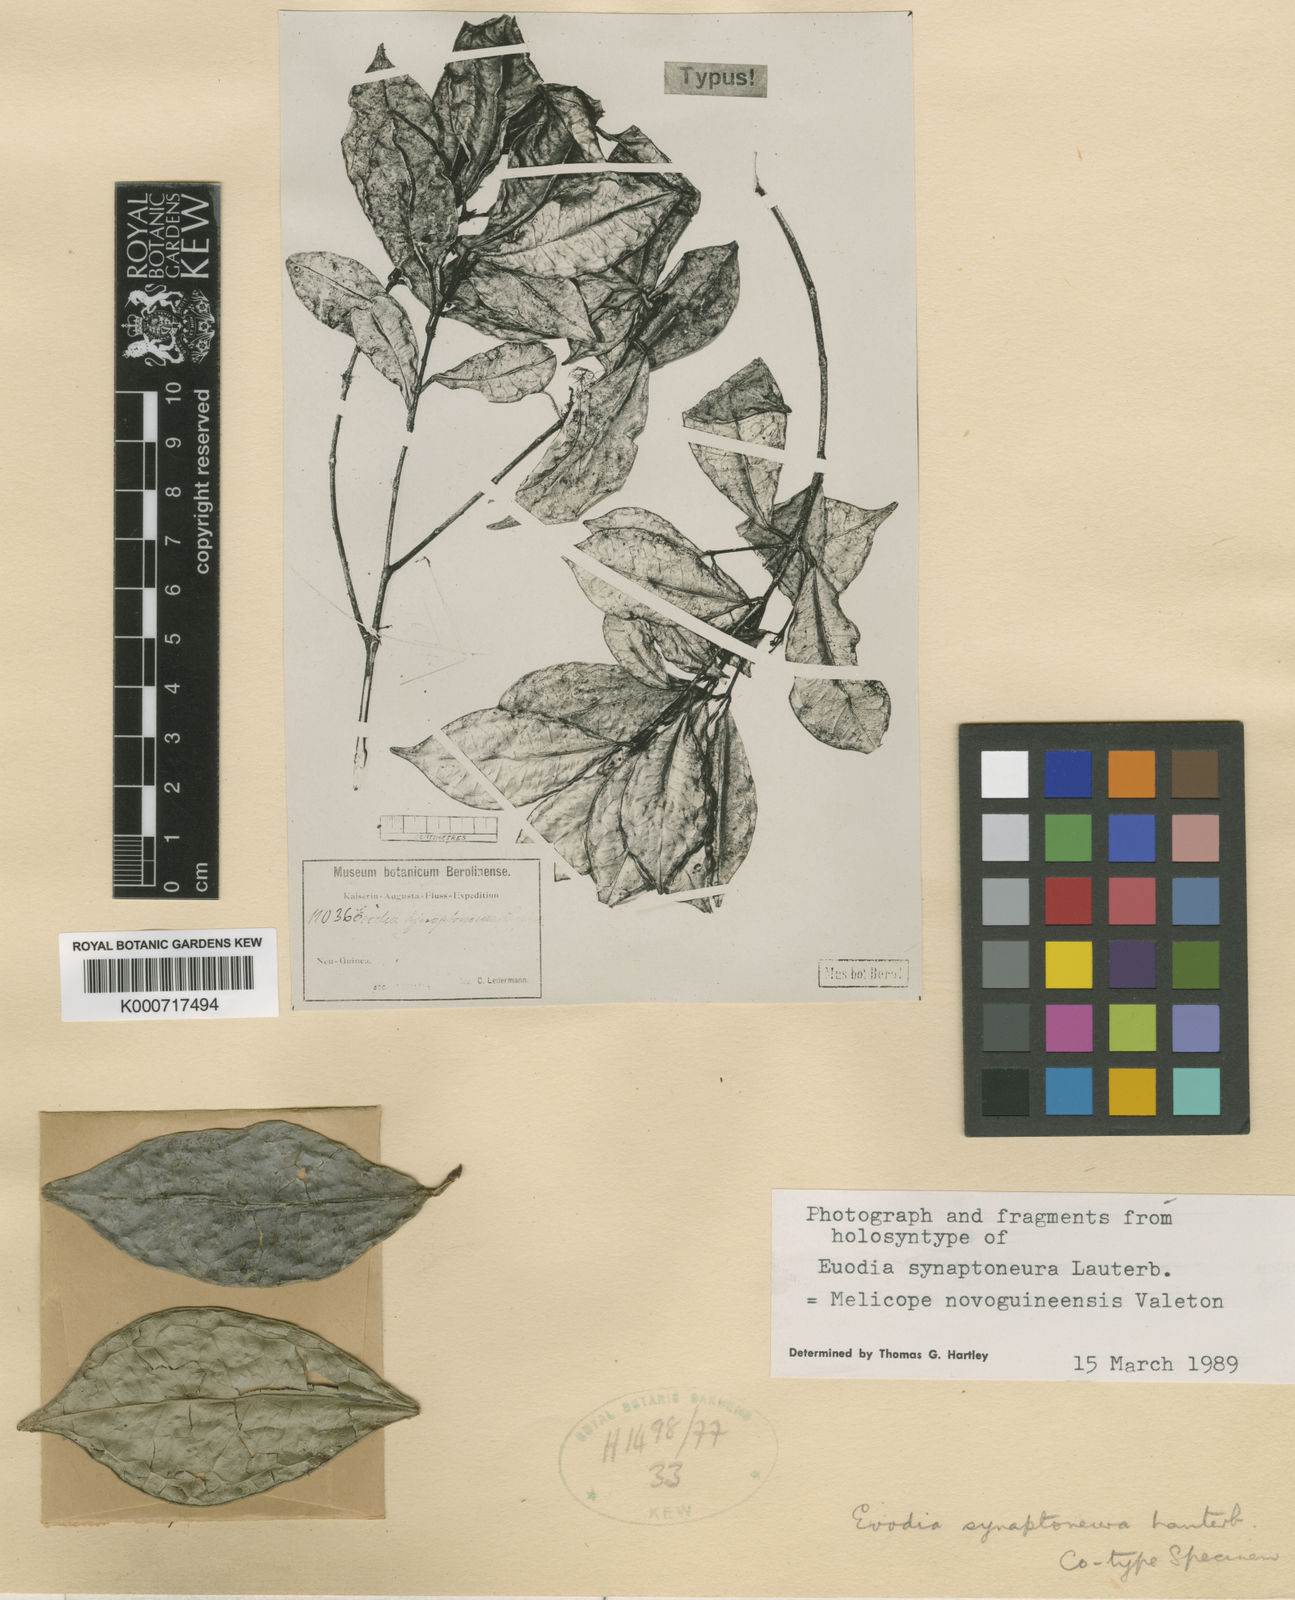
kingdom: Plantae
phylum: Tracheophyta
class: Magnoliopsida
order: Sapindales
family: Rutaceae
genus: Melicope
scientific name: Melicope novoguineensis
